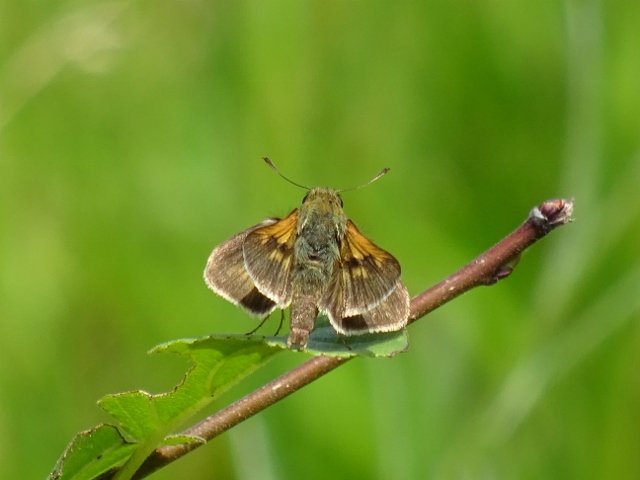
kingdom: Animalia
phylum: Arthropoda
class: Insecta
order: Lepidoptera
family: Hesperiidae
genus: Polites
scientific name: Polites
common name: Long Dash Skipper
